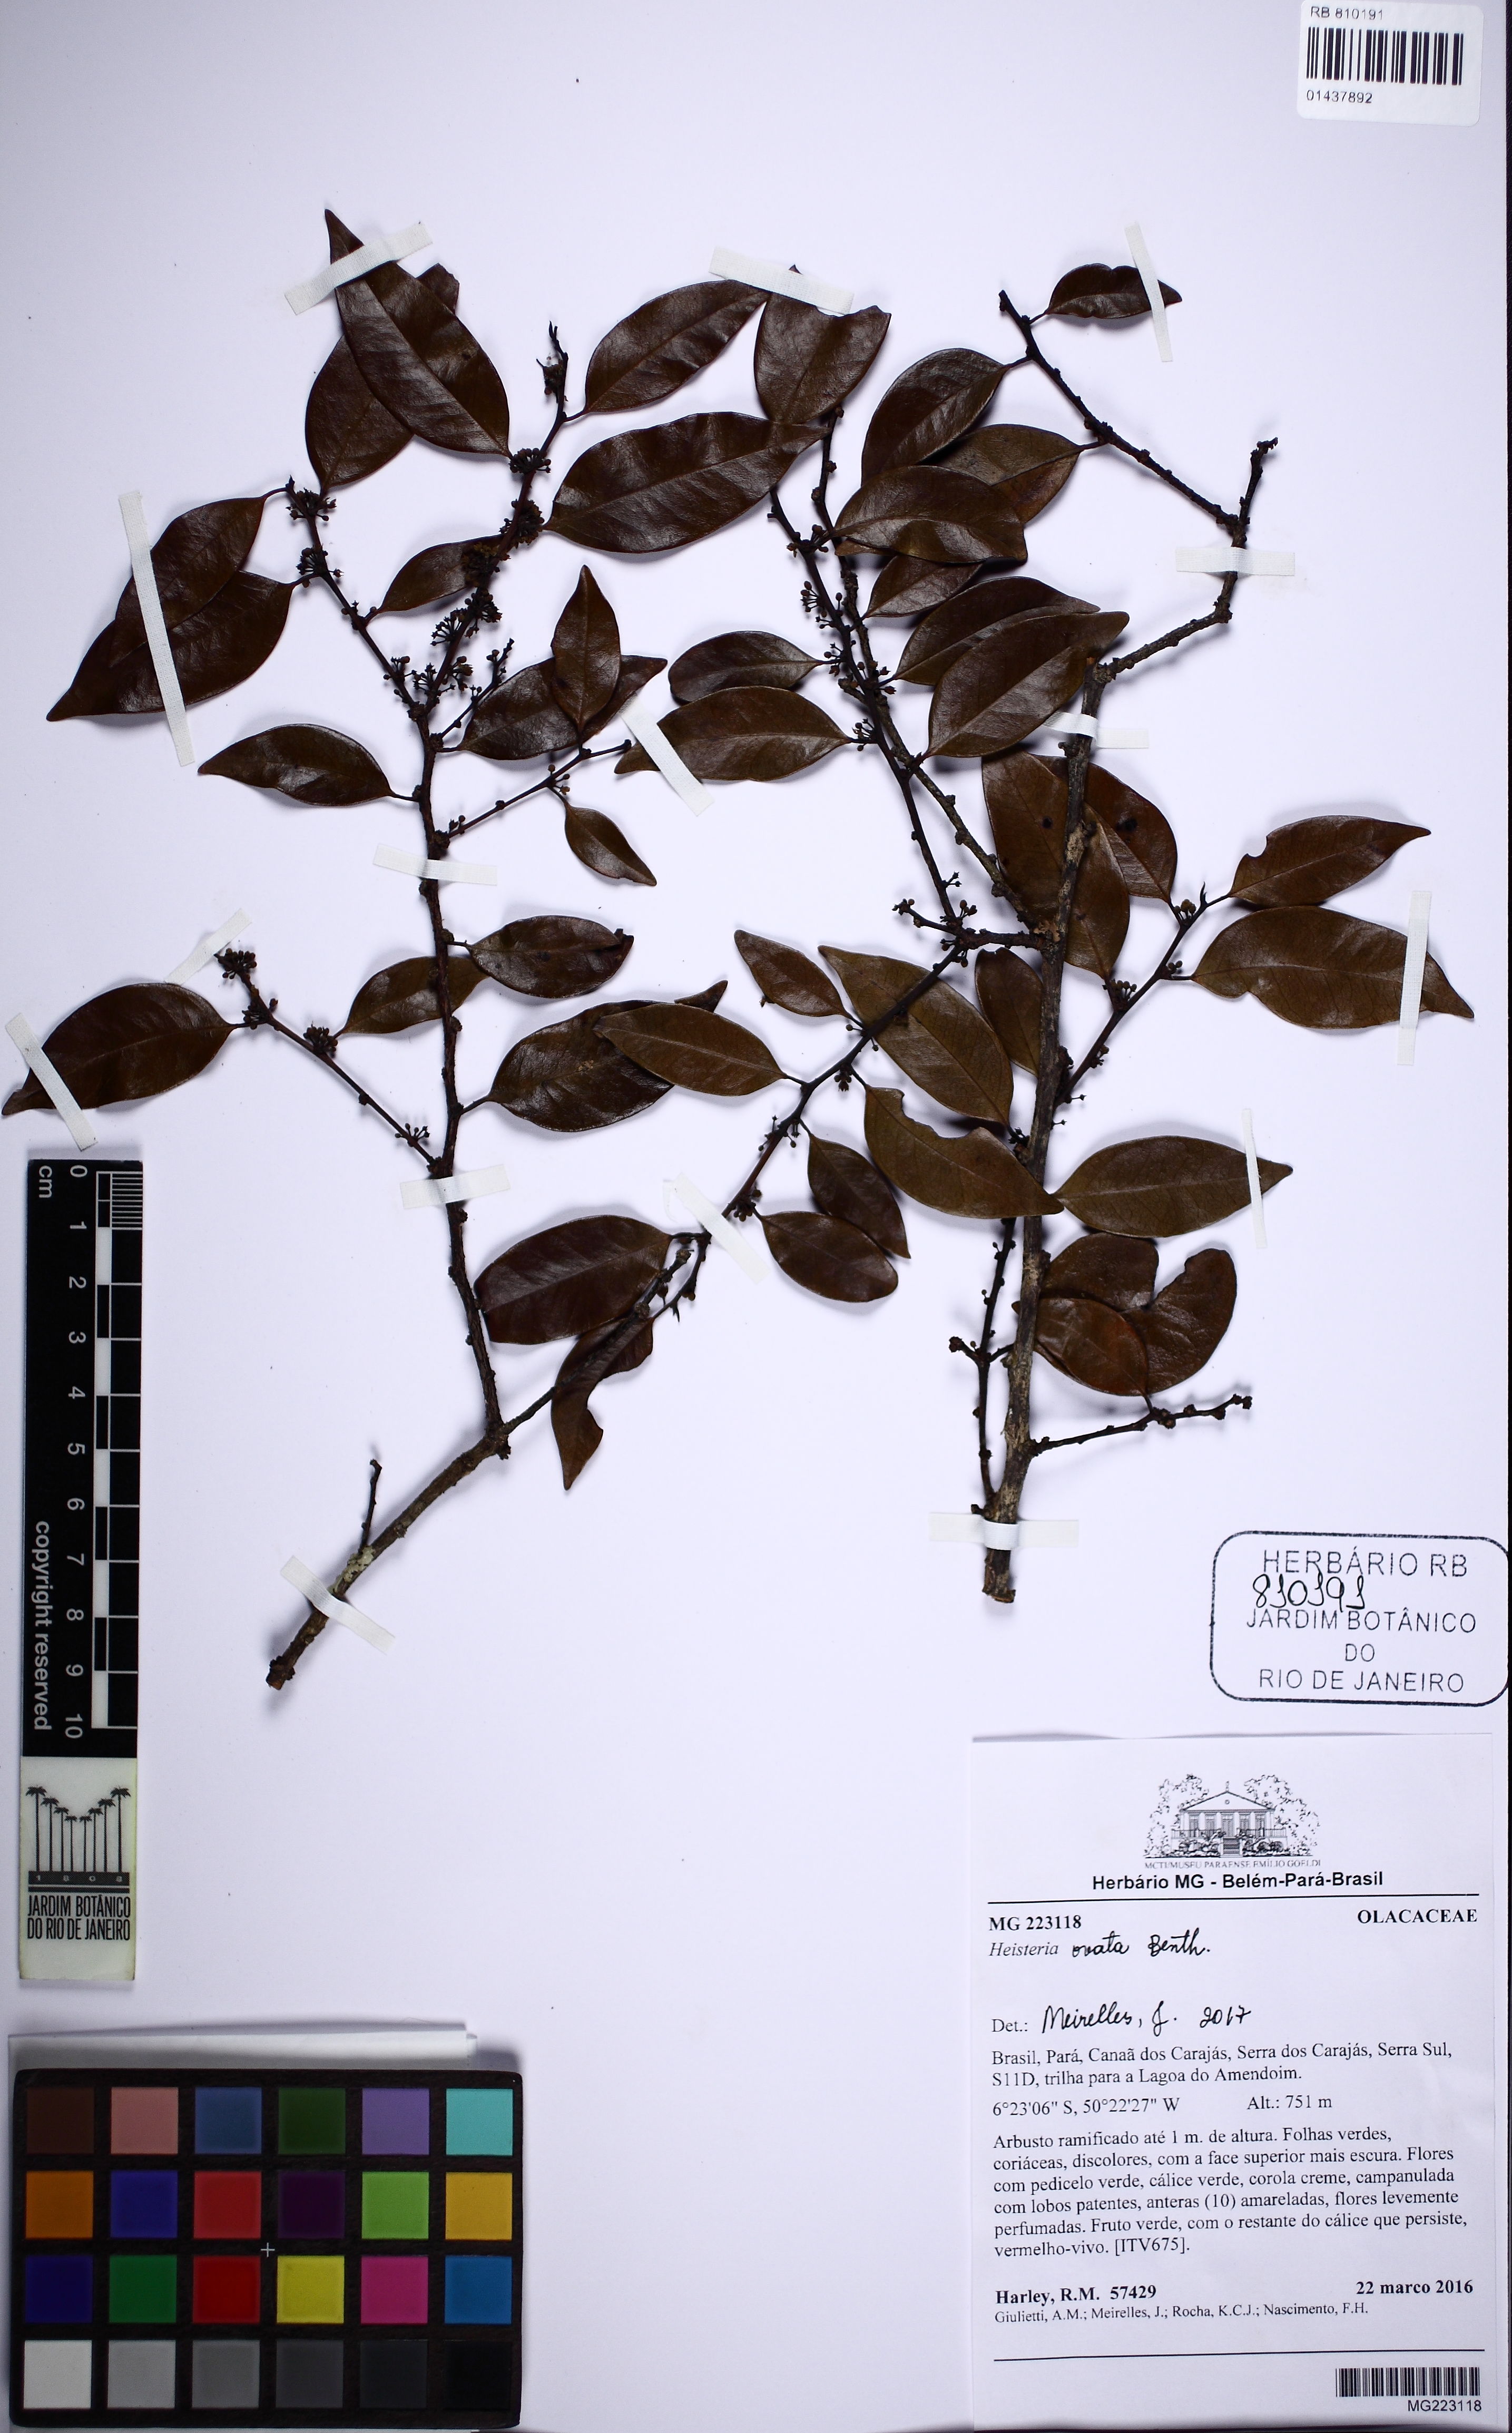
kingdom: Plantae
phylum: Tracheophyta
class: Magnoliopsida
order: Santalales
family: Erythropalaceae
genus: Heisteria
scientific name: Heisteria ovata
